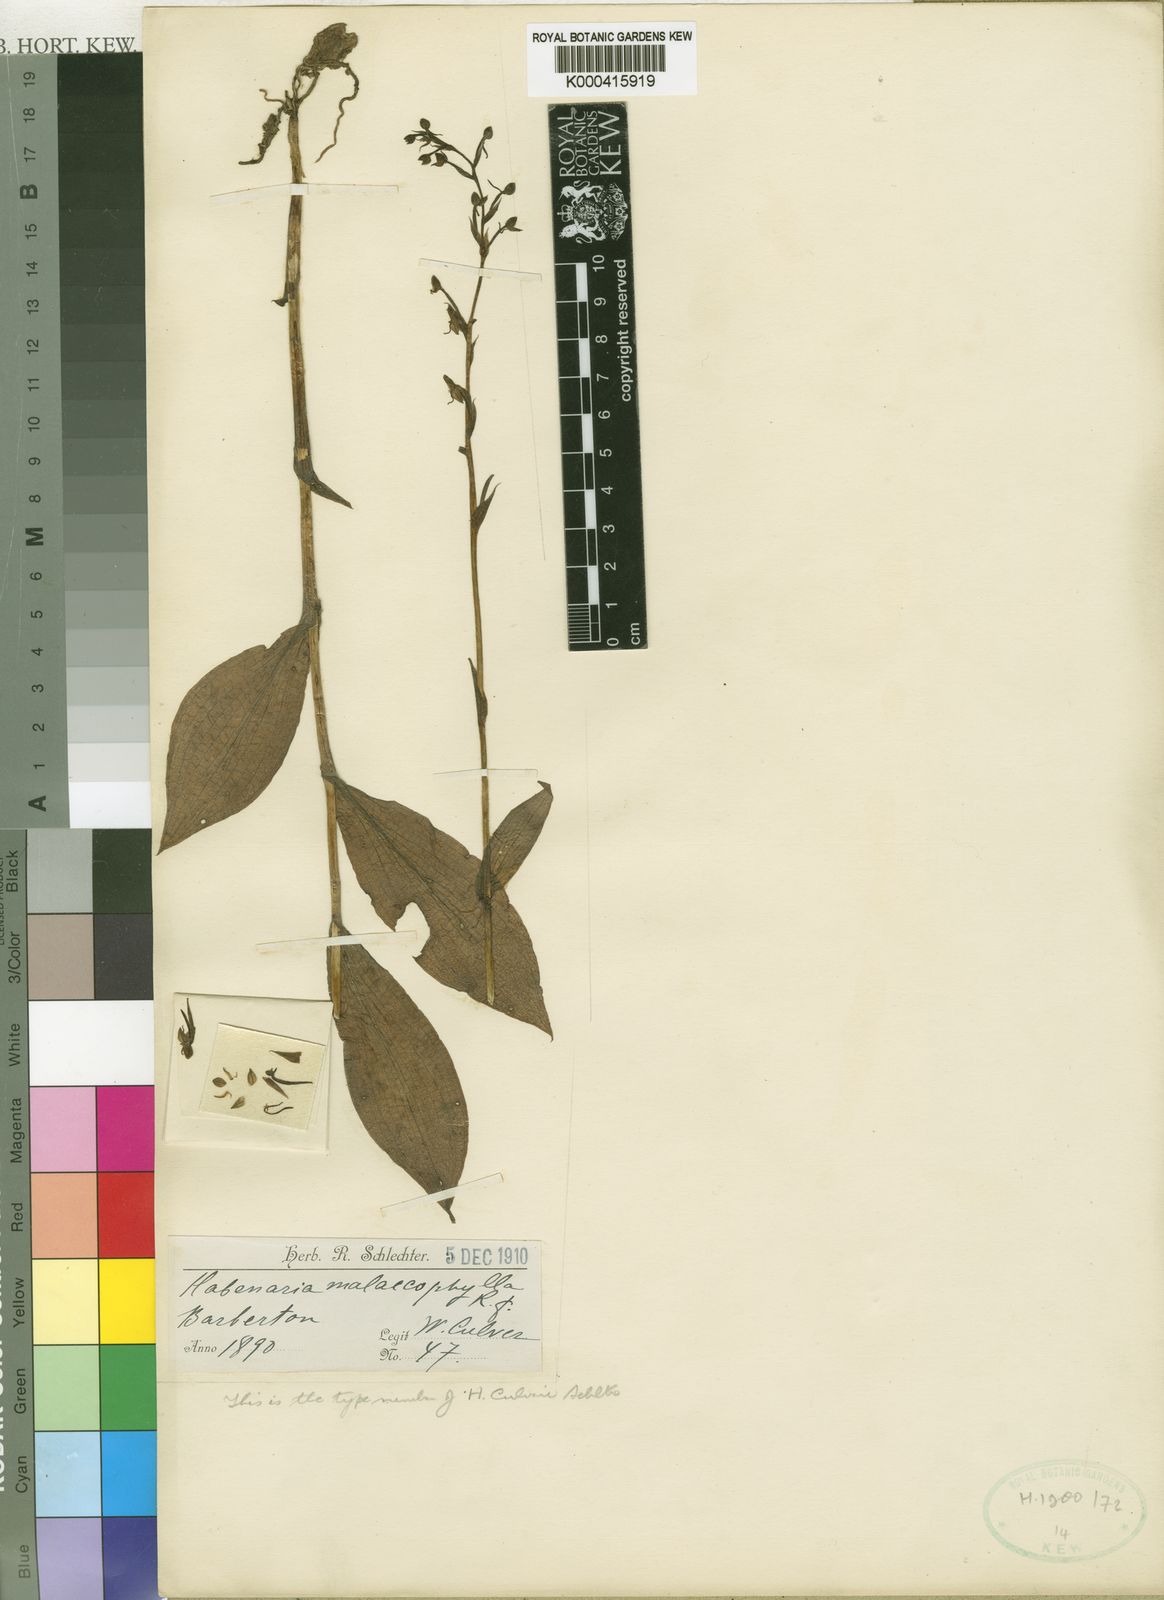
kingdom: Plantae
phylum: Tracheophyta
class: Liliopsida
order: Asparagales
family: Orchidaceae
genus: Habenaria
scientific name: Habenaria culveri
